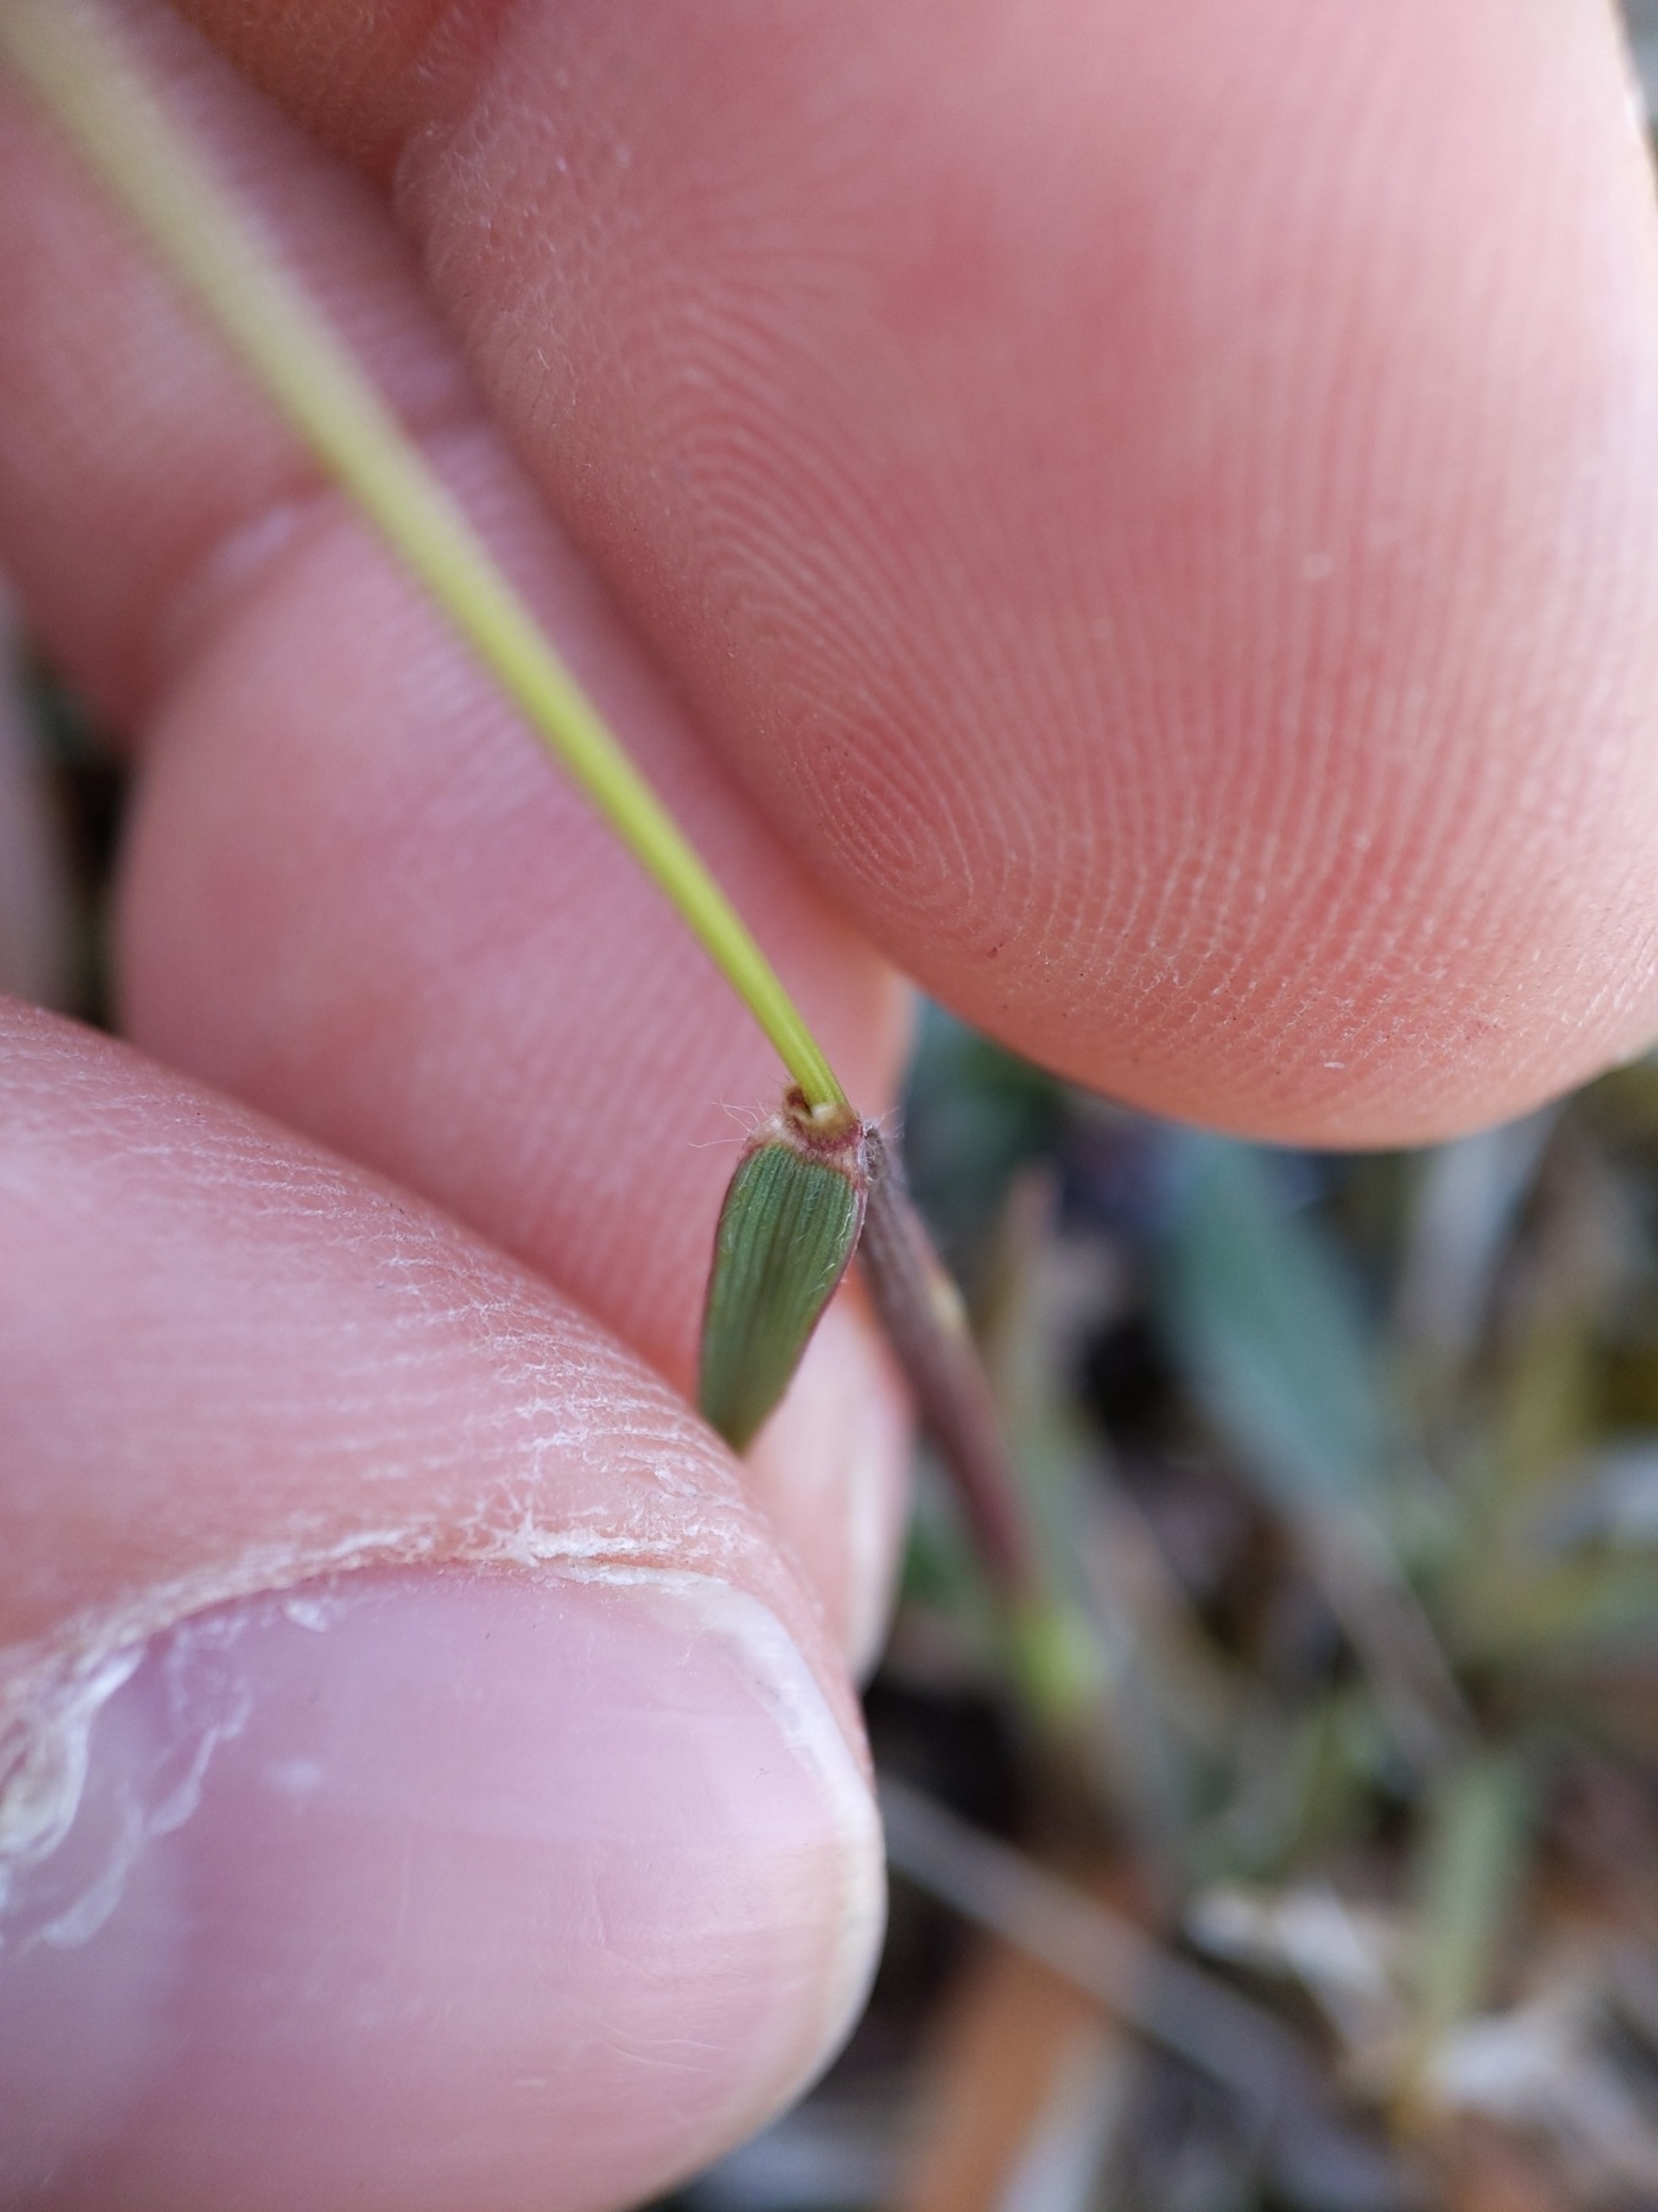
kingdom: Plantae
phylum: Tracheophyta
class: Liliopsida
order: Poales
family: Poaceae
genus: Anthoxanthum
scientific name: Anthoxanthum odoratum
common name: Vellugtende gulaks
